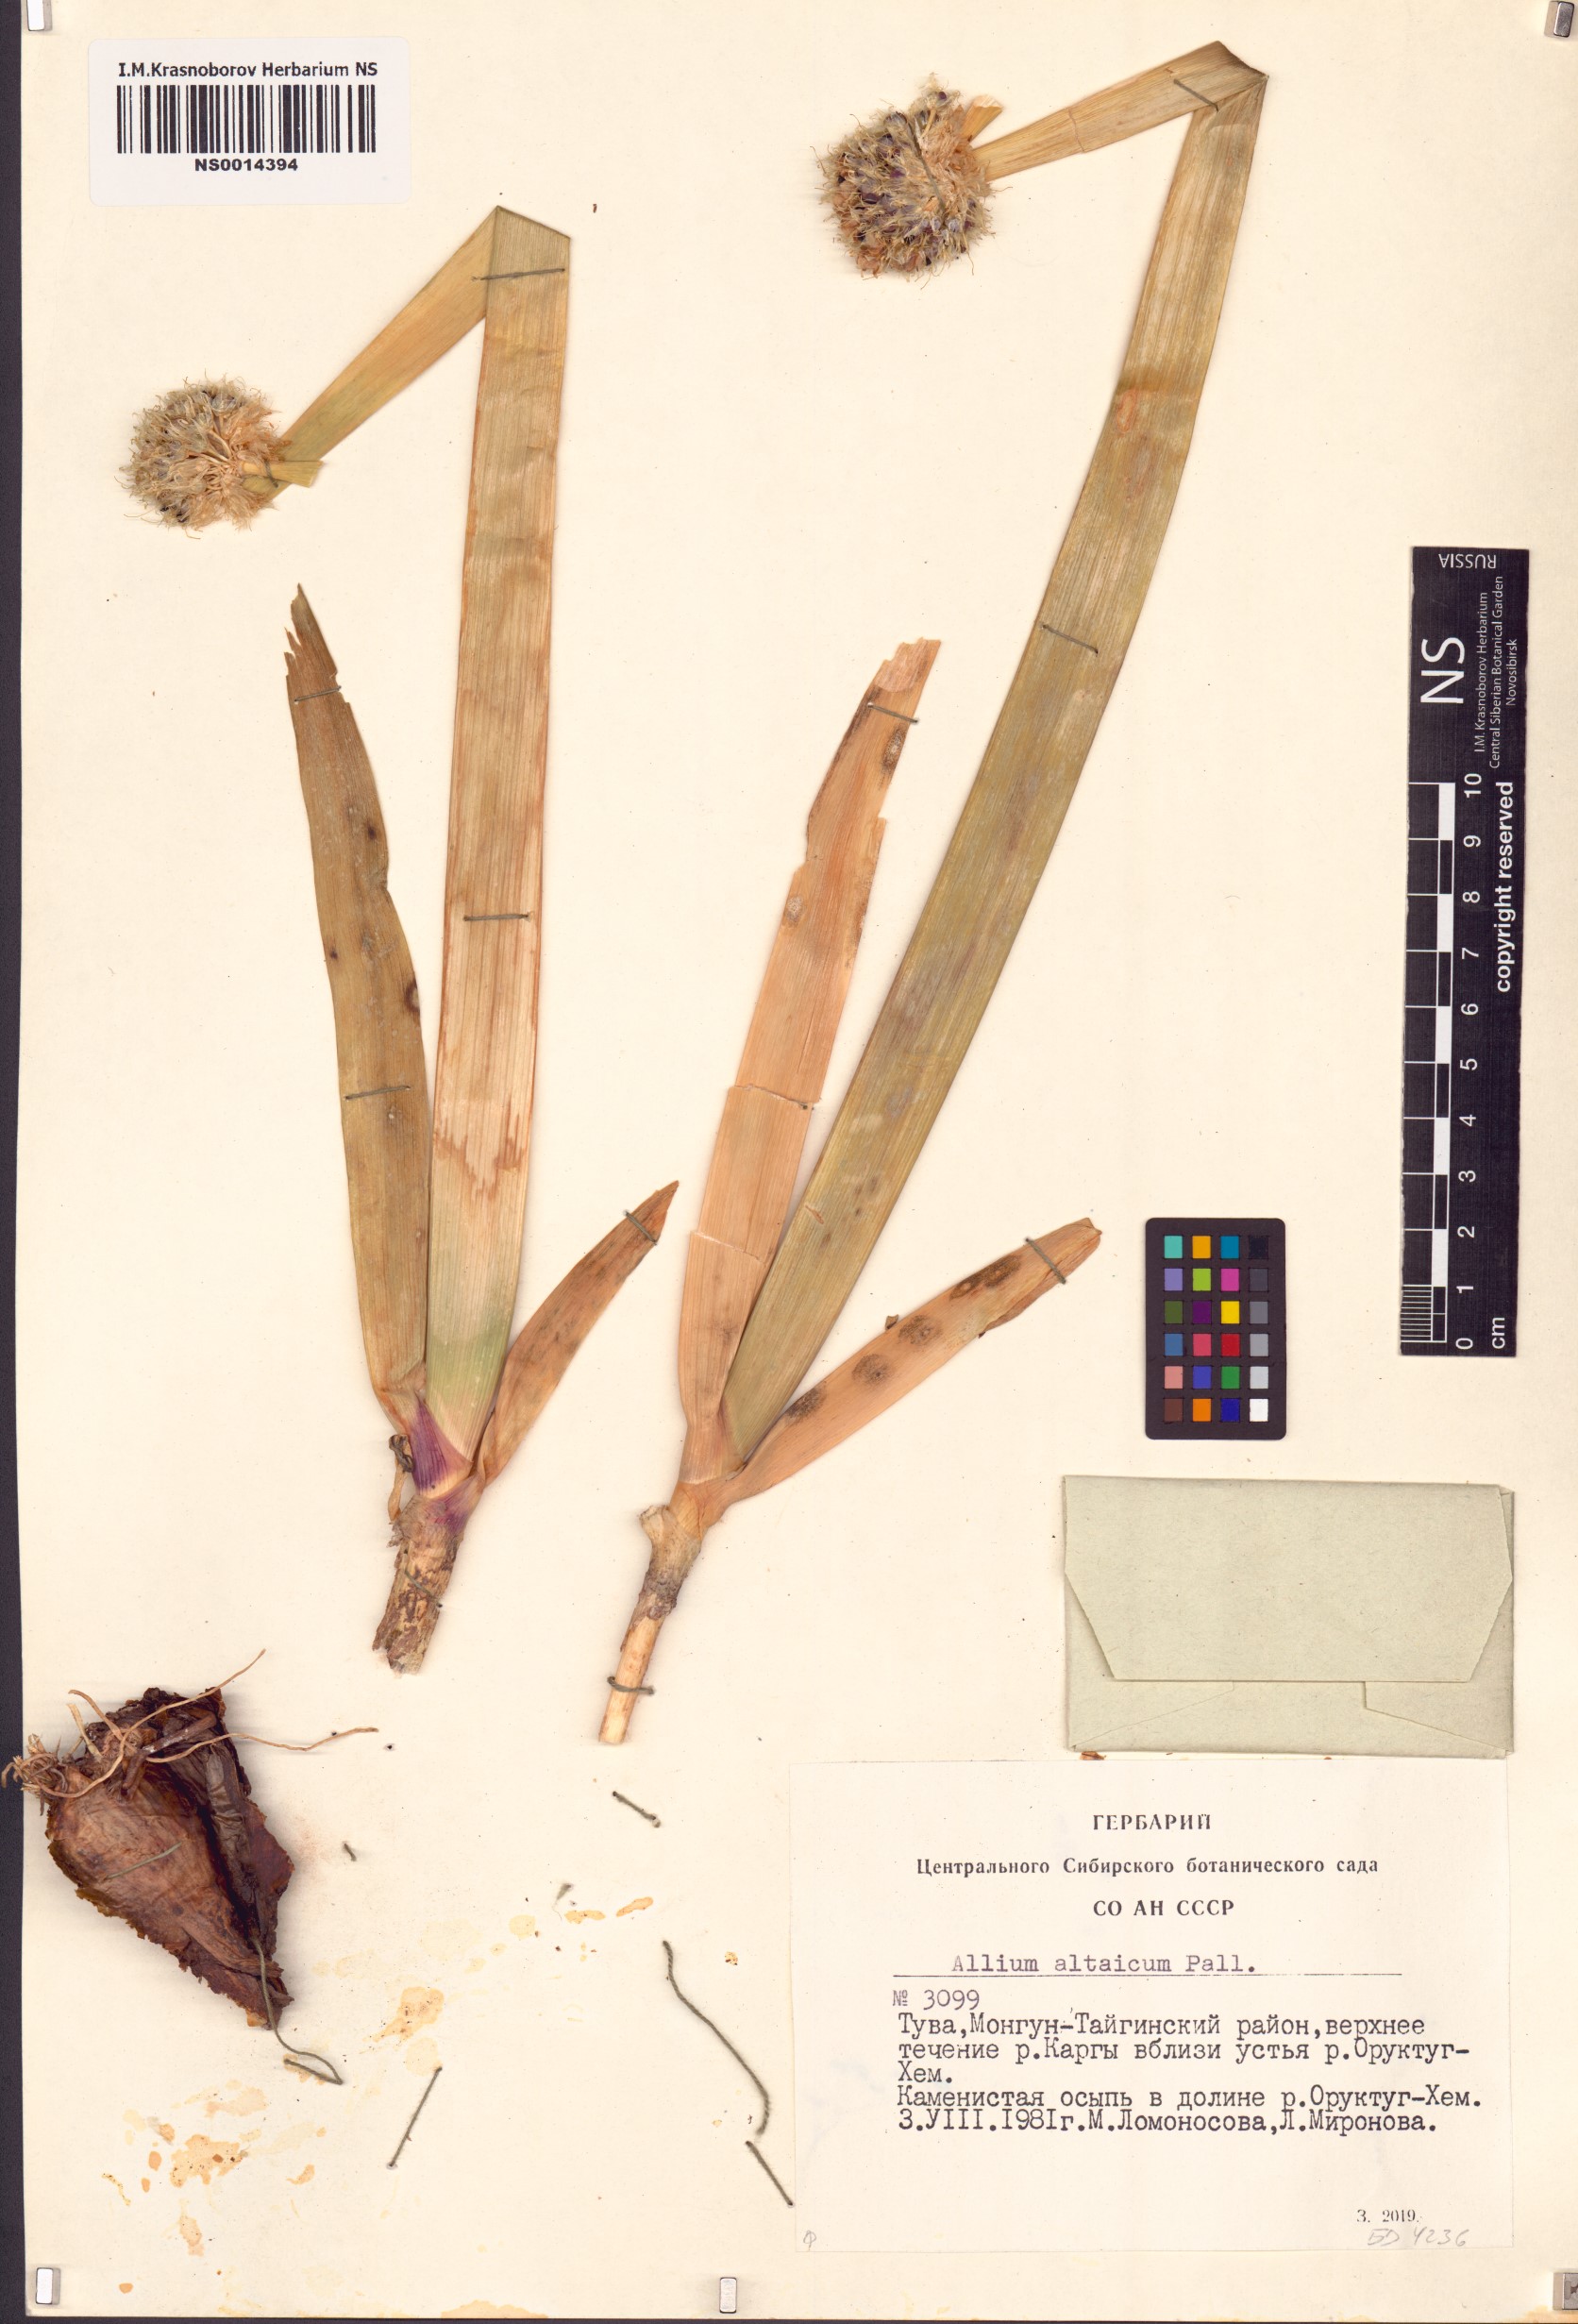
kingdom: Plantae
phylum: Tracheophyta
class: Liliopsida
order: Asparagales
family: Amaryllidaceae
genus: Allium
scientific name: Allium altaicum
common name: Altai onion
